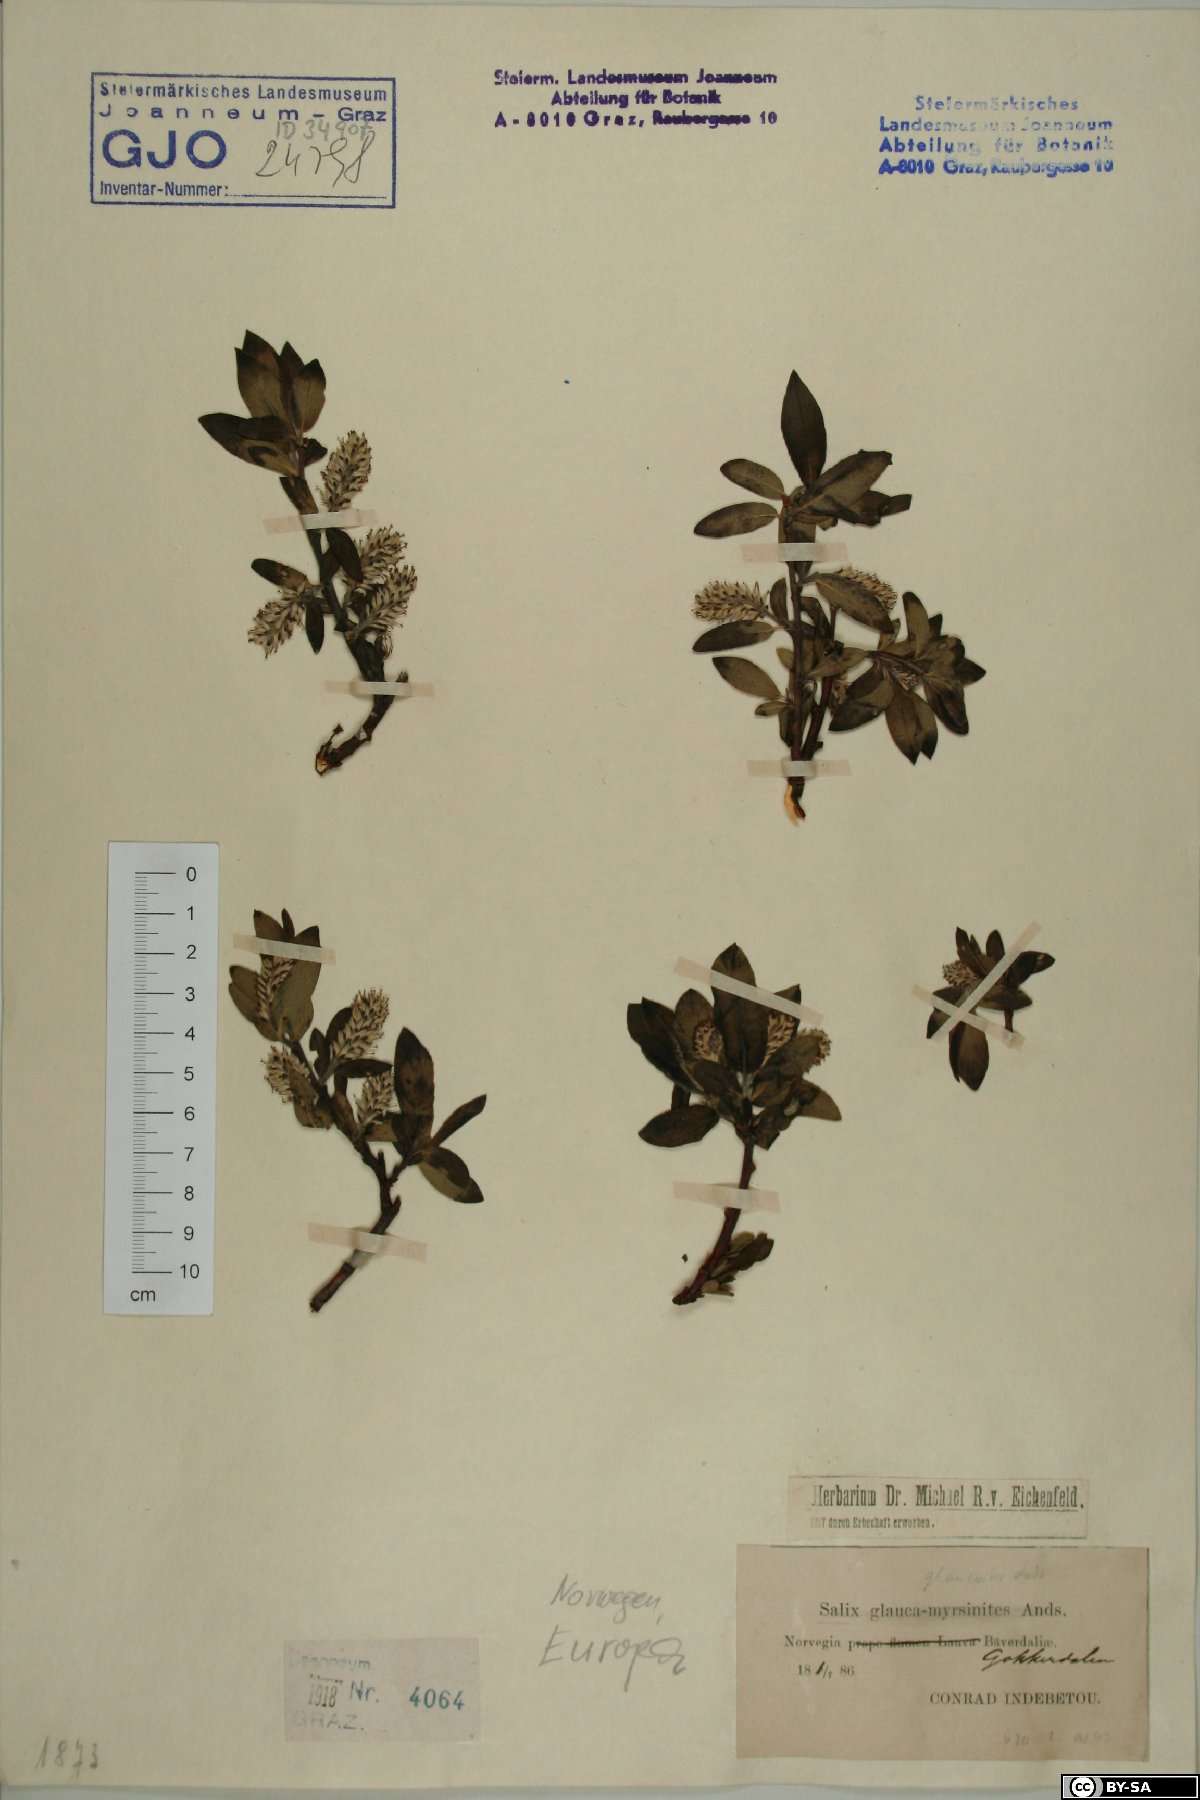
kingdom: Plantae
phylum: Tracheophyta
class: Magnoliopsida
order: Malpighiales
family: Salicaceae
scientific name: Salicaceae
